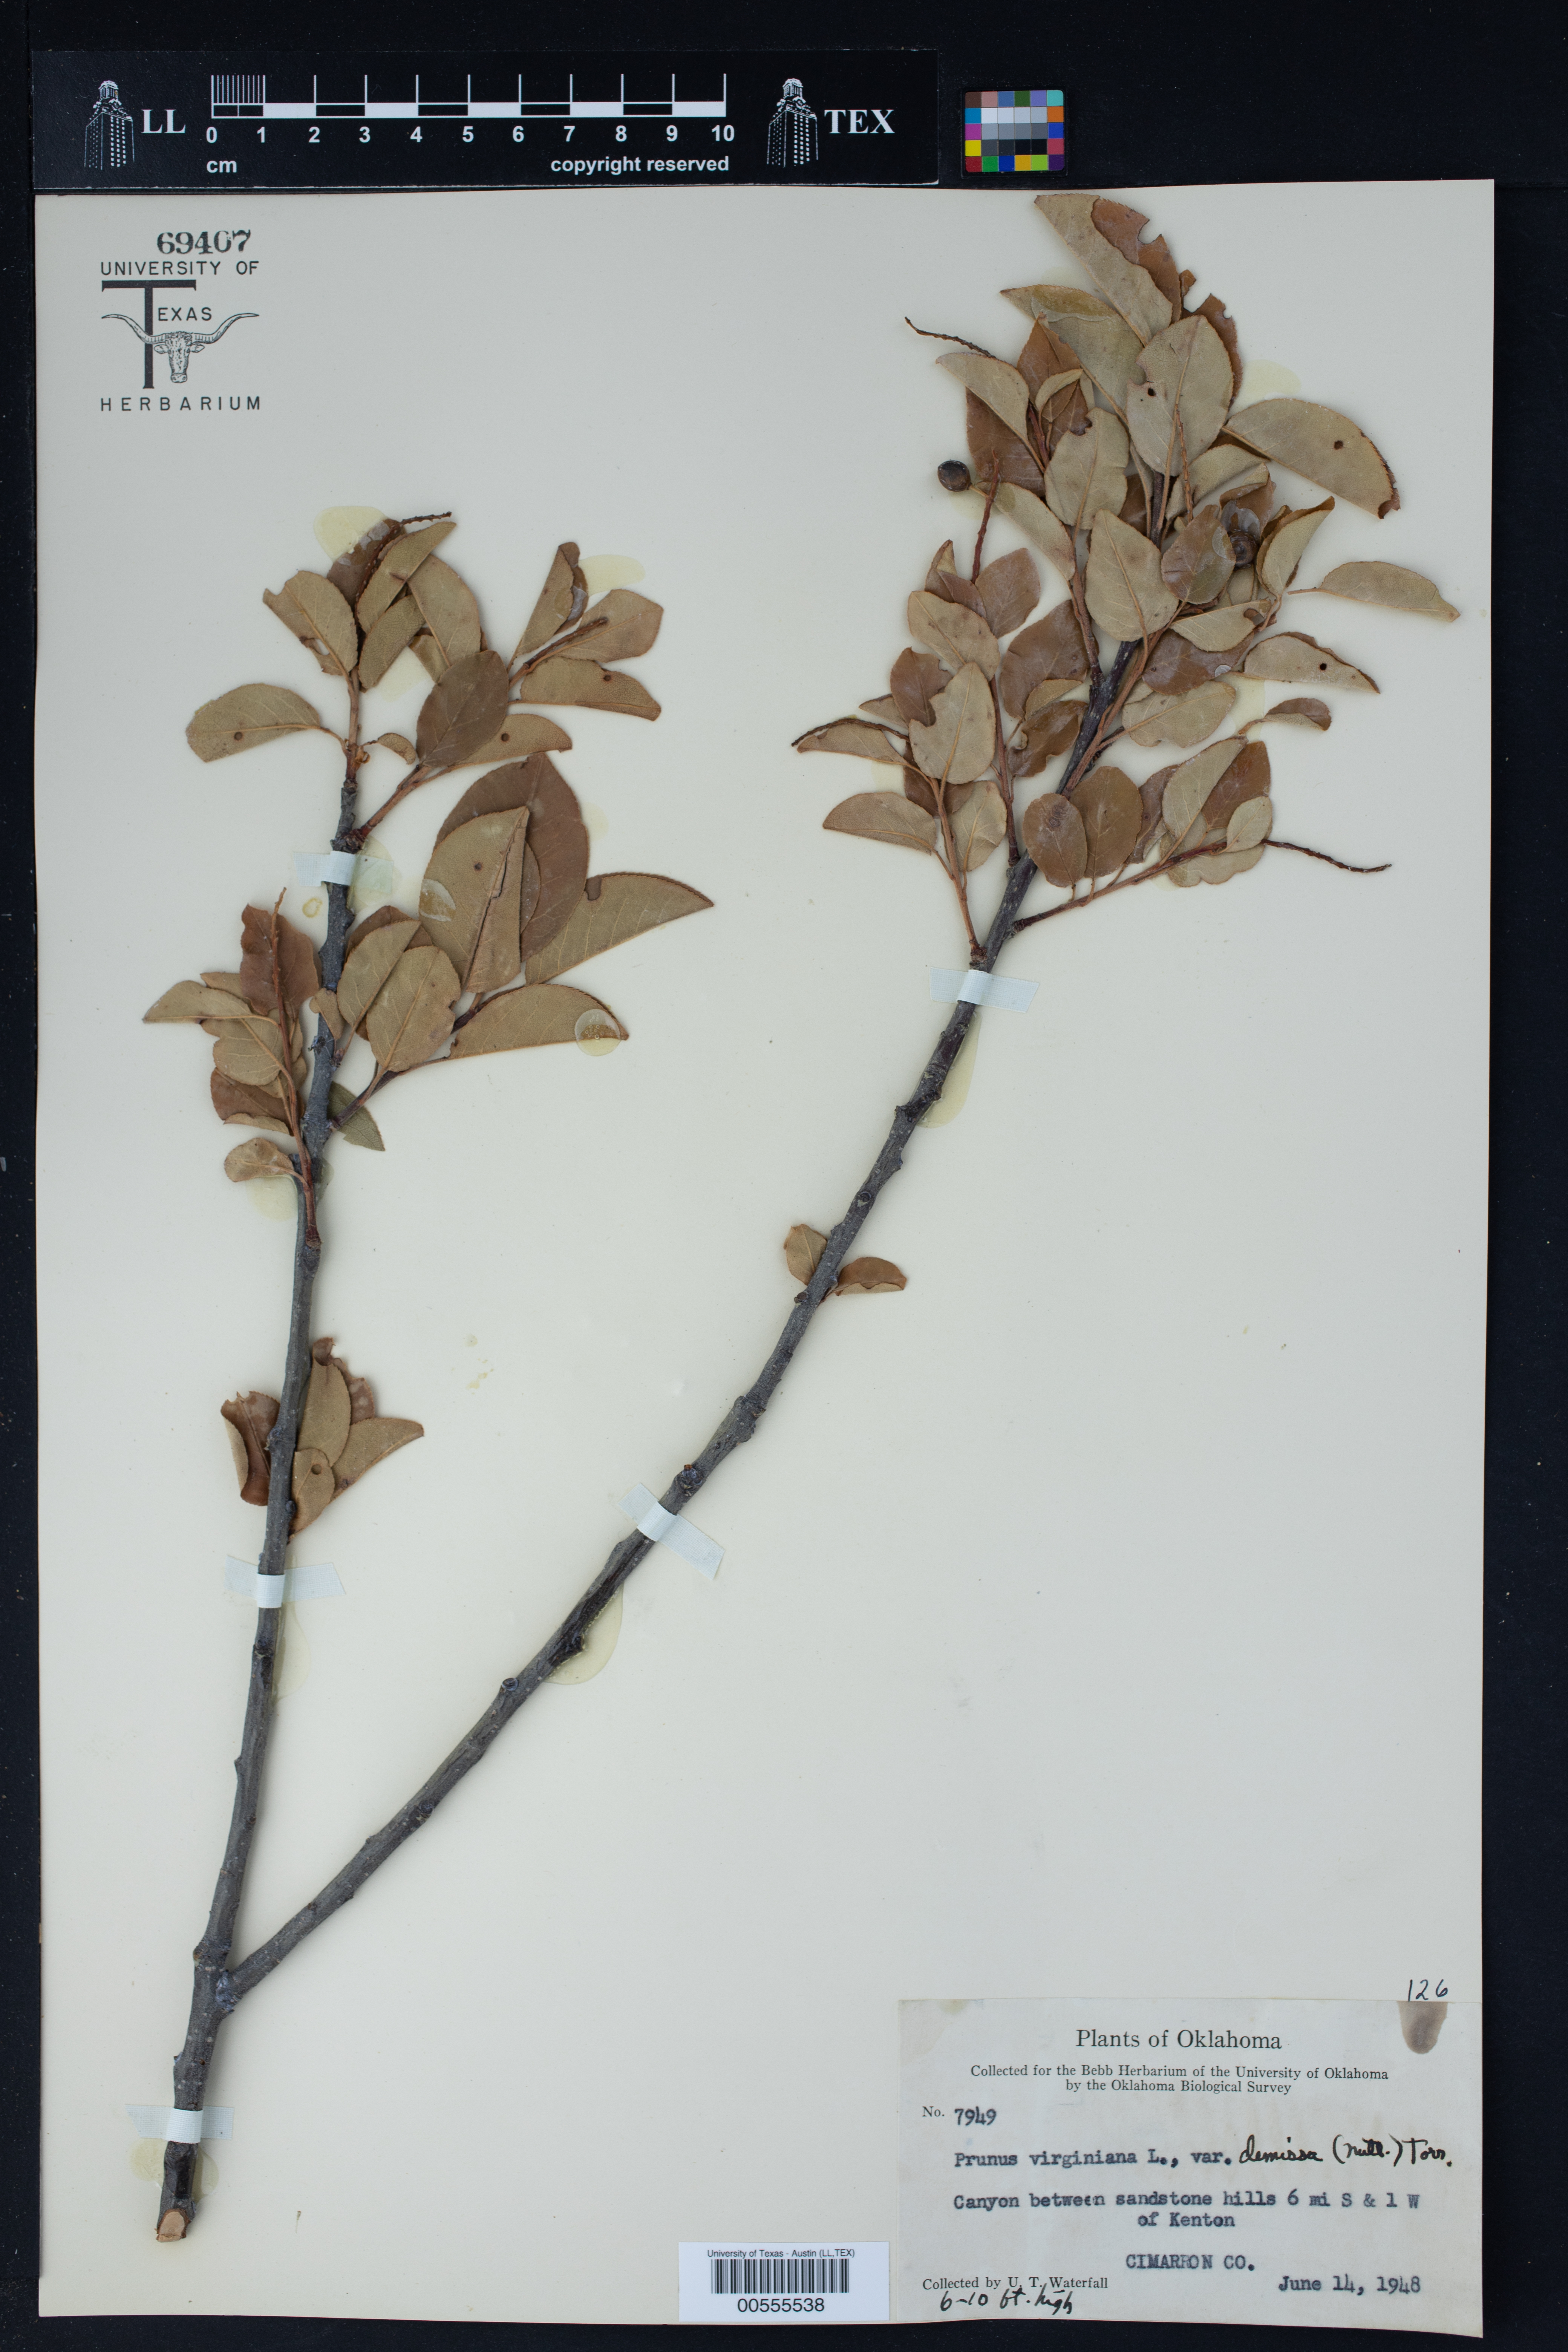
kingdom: Plantae
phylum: Tracheophyta
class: Magnoliopsida
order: Rosales
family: Rosaceae
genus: Prunus
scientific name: Prunus virginiana
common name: Chokecherry
